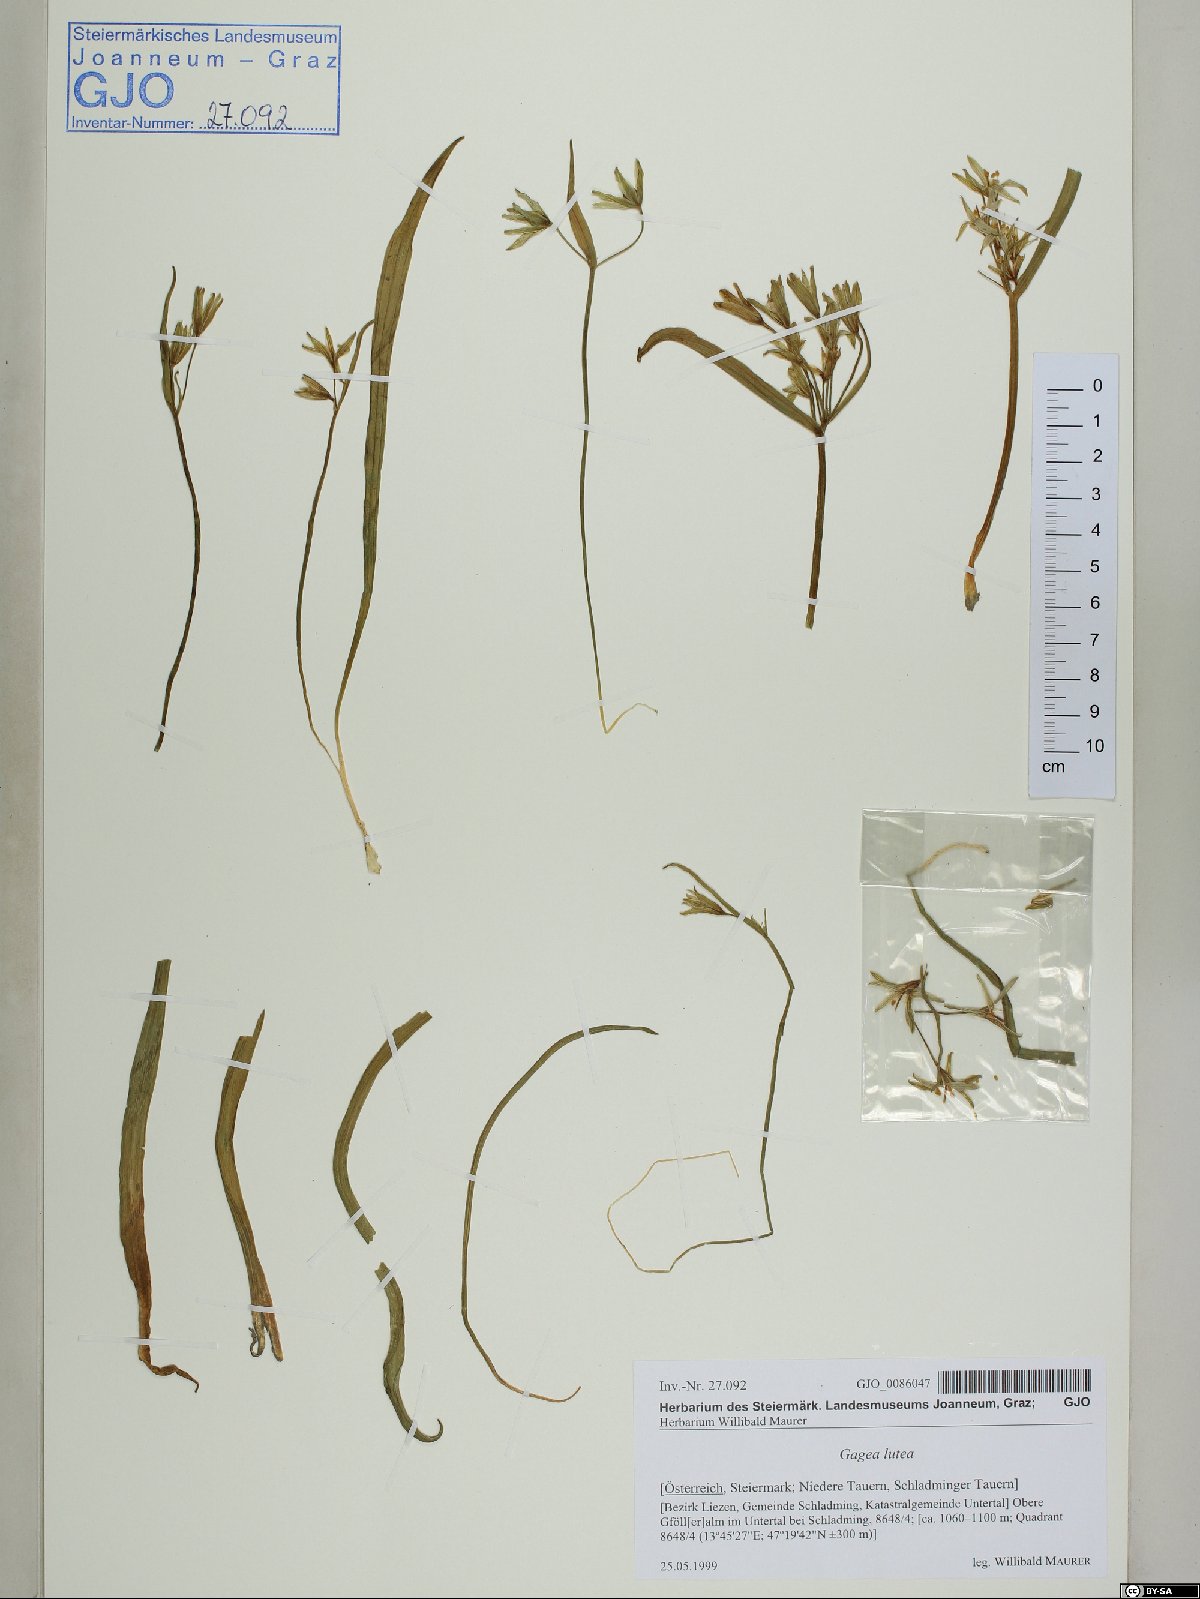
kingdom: Plantae
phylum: Tracheophyta
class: Liliopsida
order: Liliales
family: Liliaceae
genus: Gagea
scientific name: Gagea lutea
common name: Yellow star-of-bethlehem
